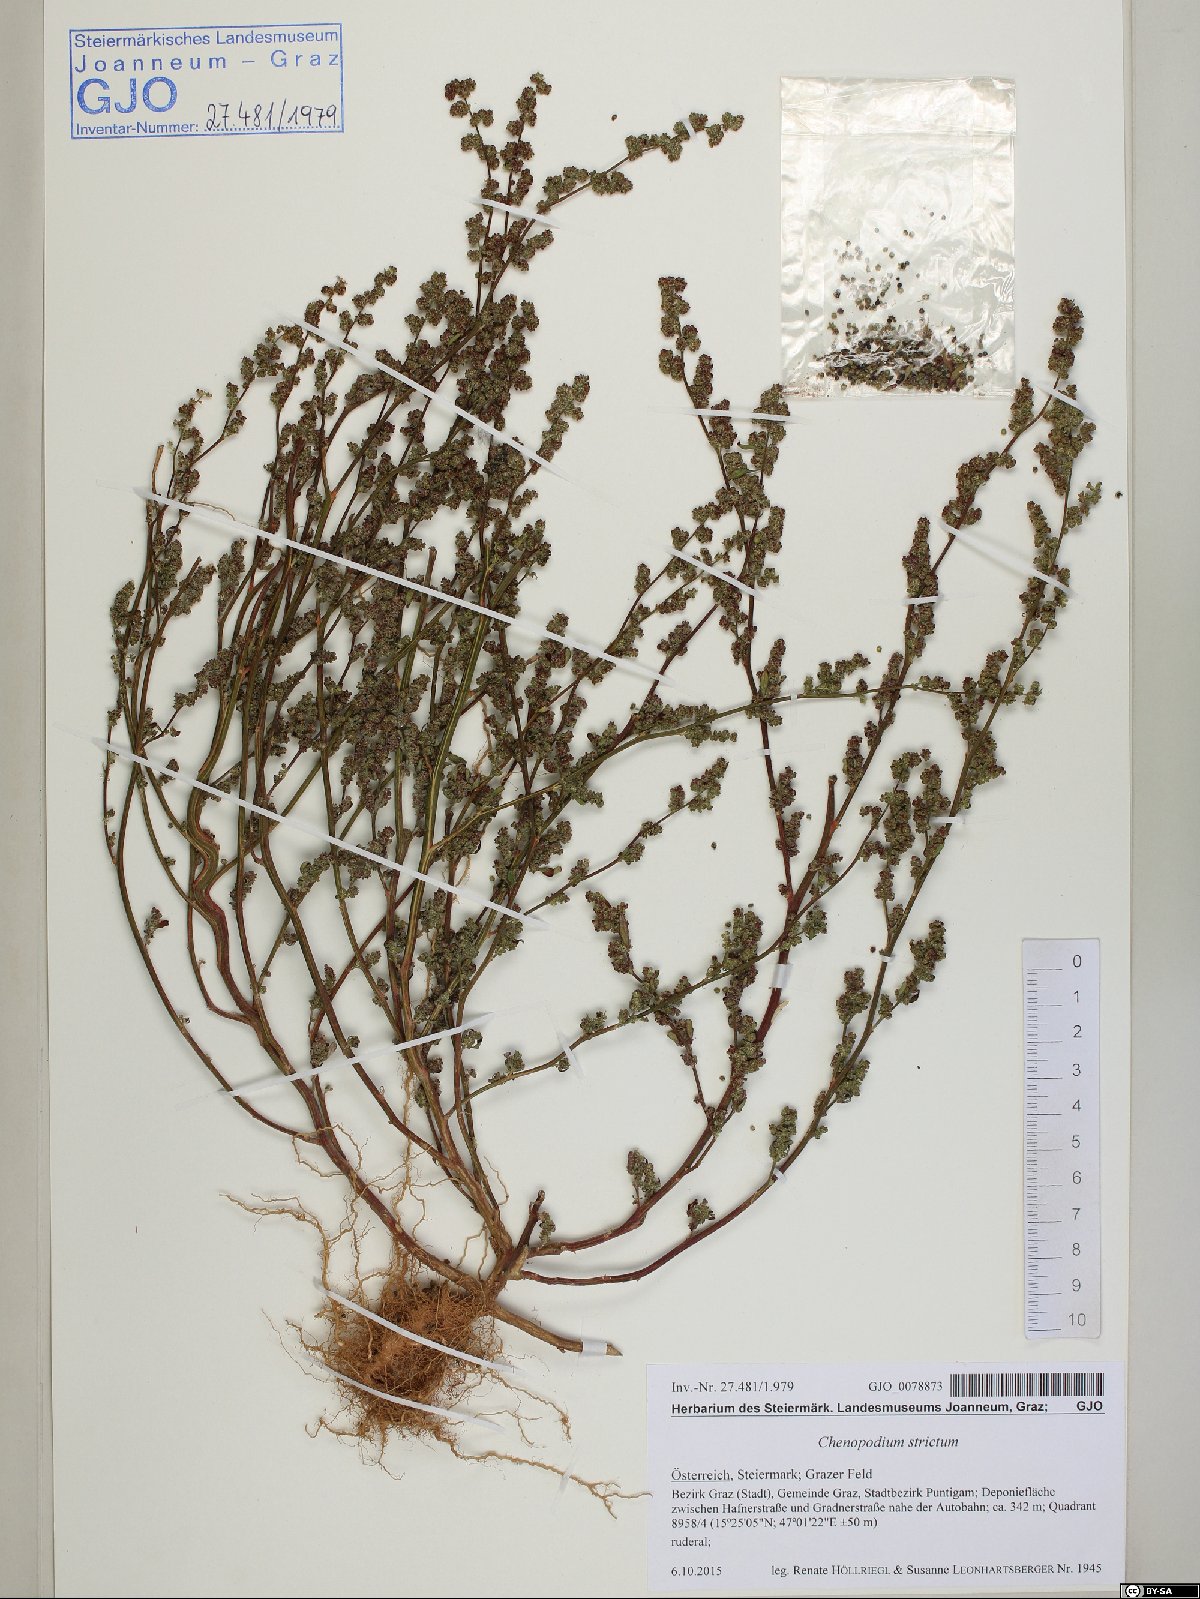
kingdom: Plantae
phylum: Tracheophyta
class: Magnoliopsida
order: Caryophyllales
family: Amaranthaceae
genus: Chenopodium
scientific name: Chenopodium album
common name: Fat-hen
